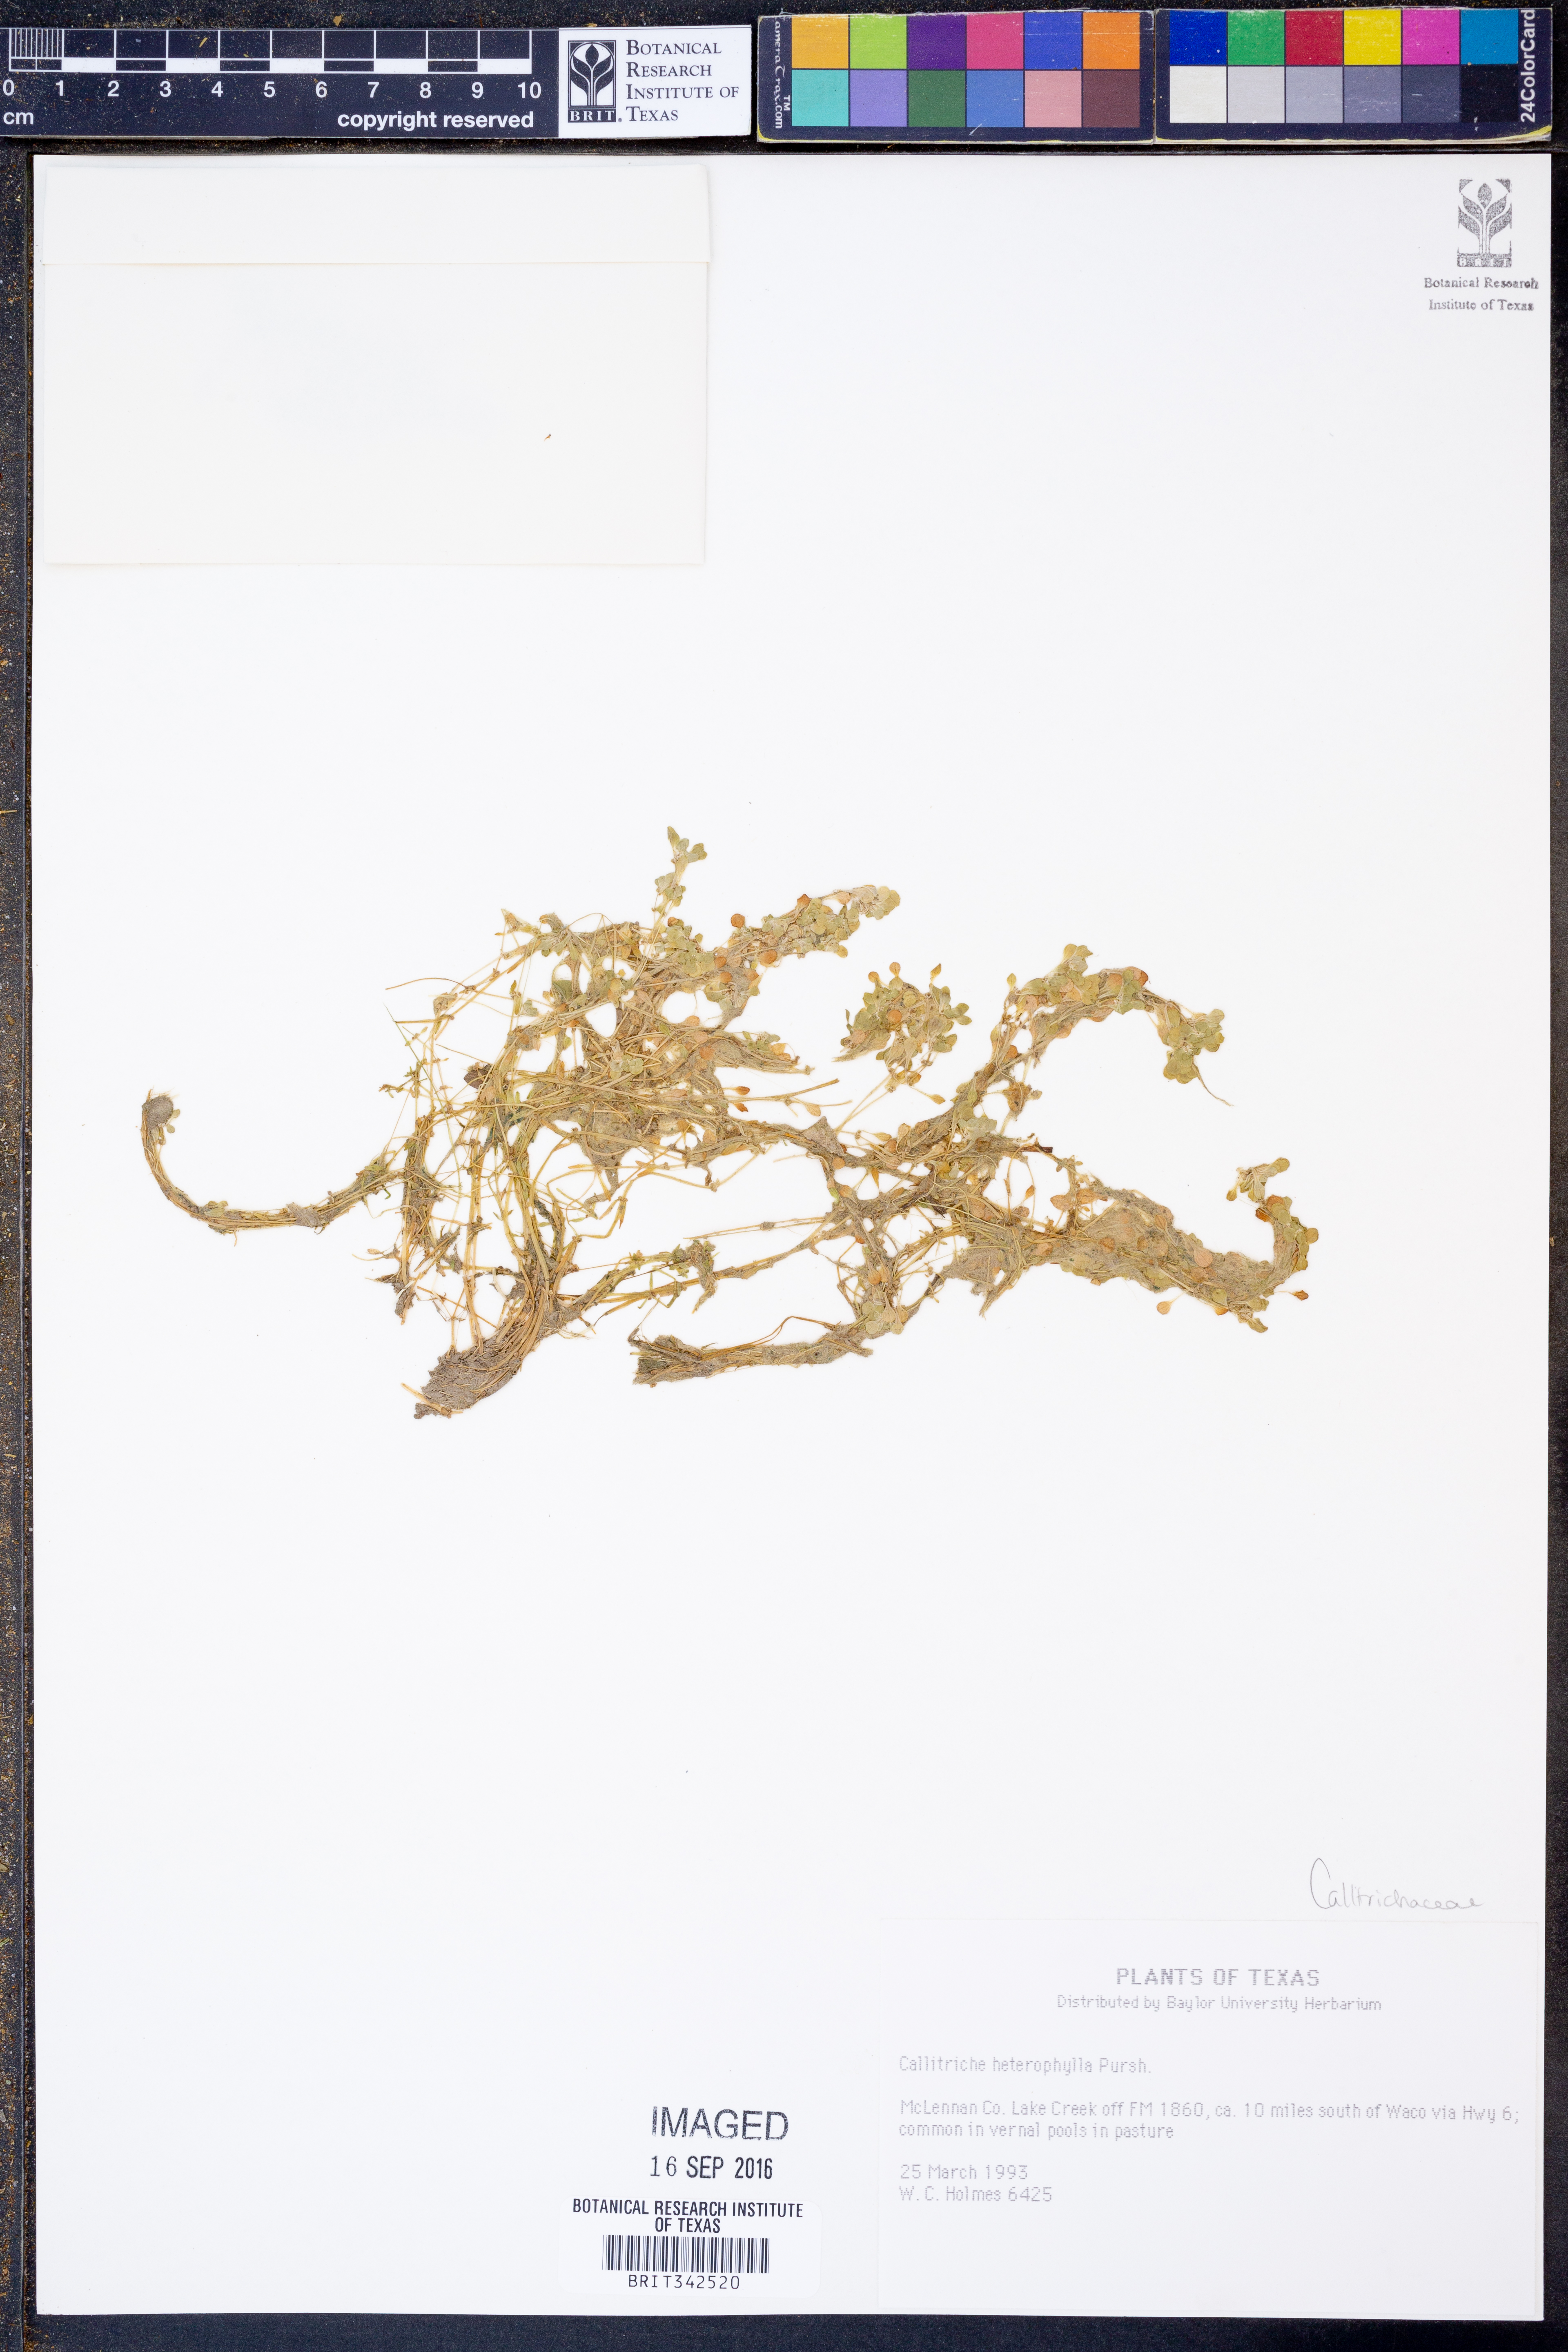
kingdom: Plantae
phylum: Tracheophyta
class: Magnoliopsida
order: Lamiales
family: Plantaginaceae
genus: Callitriche
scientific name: Callitriche heterophylla
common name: Two-headed water-starwort
